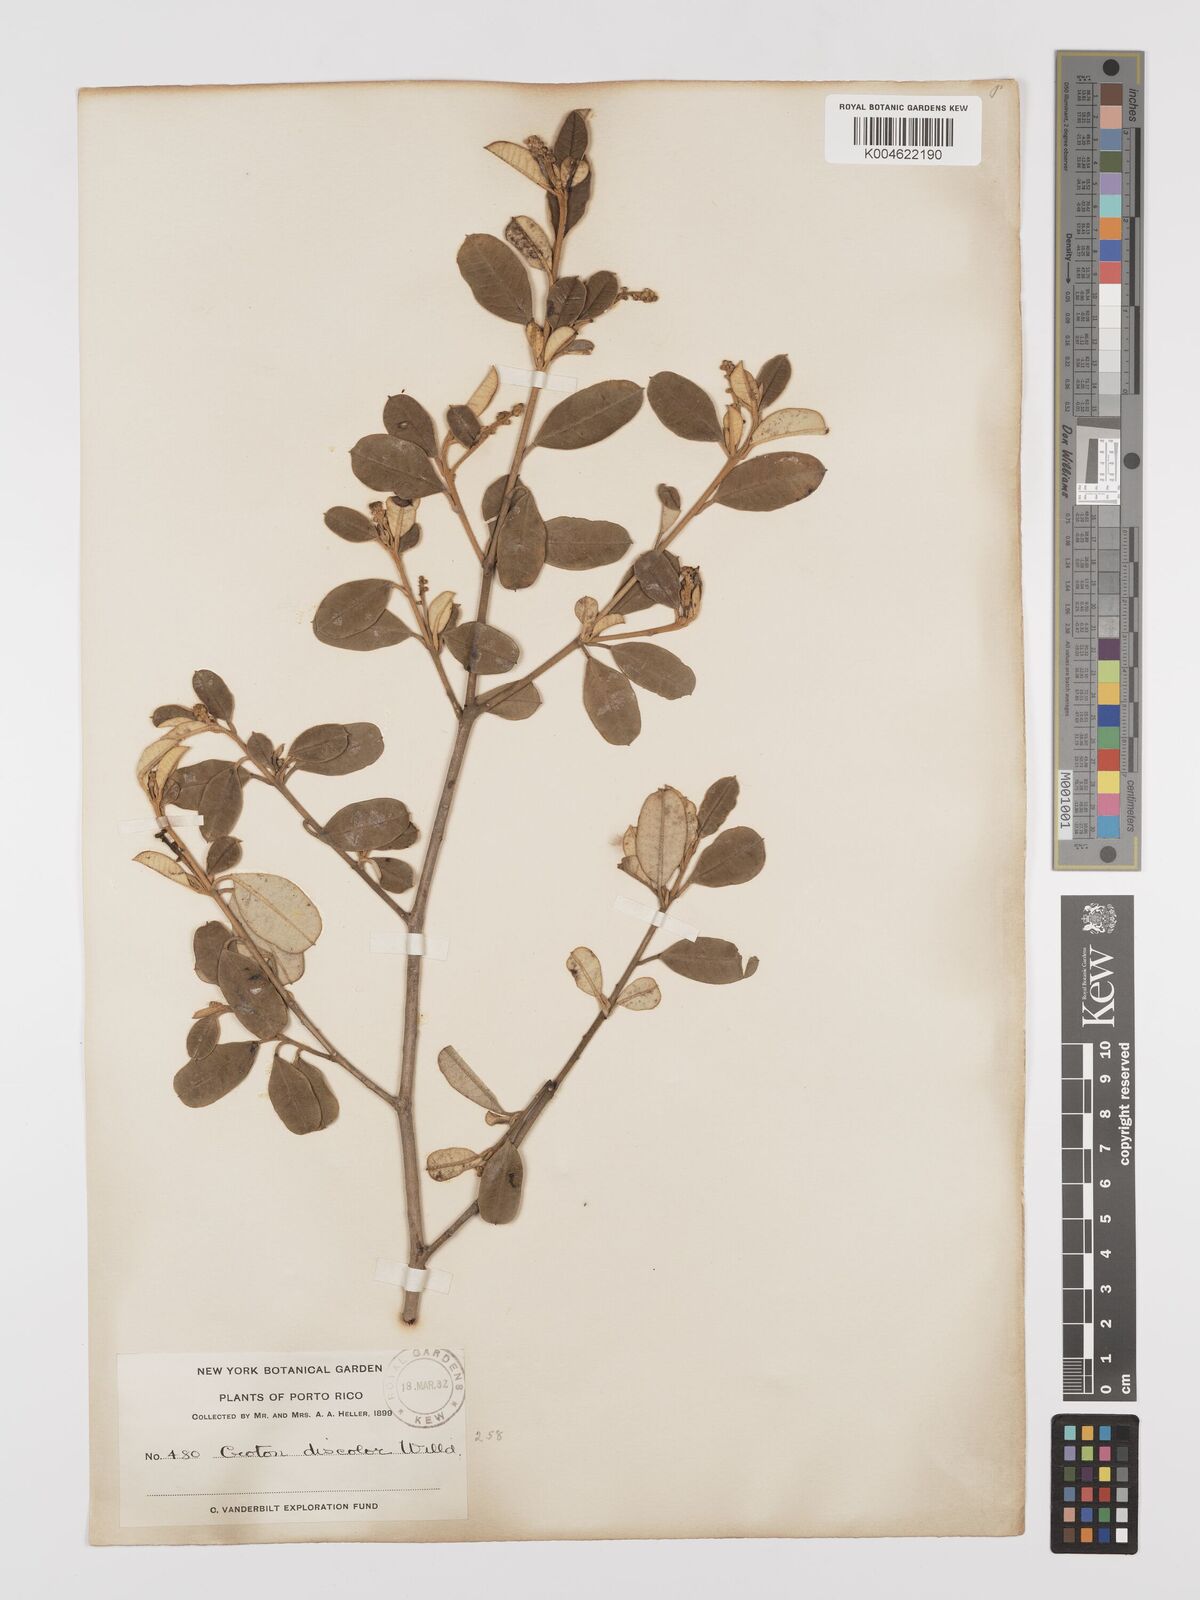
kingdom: Plantae
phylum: Tracheophyta
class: Magnoliopsida
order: Malpighiales
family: Euphorbiaceae
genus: Croton
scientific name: Croton
